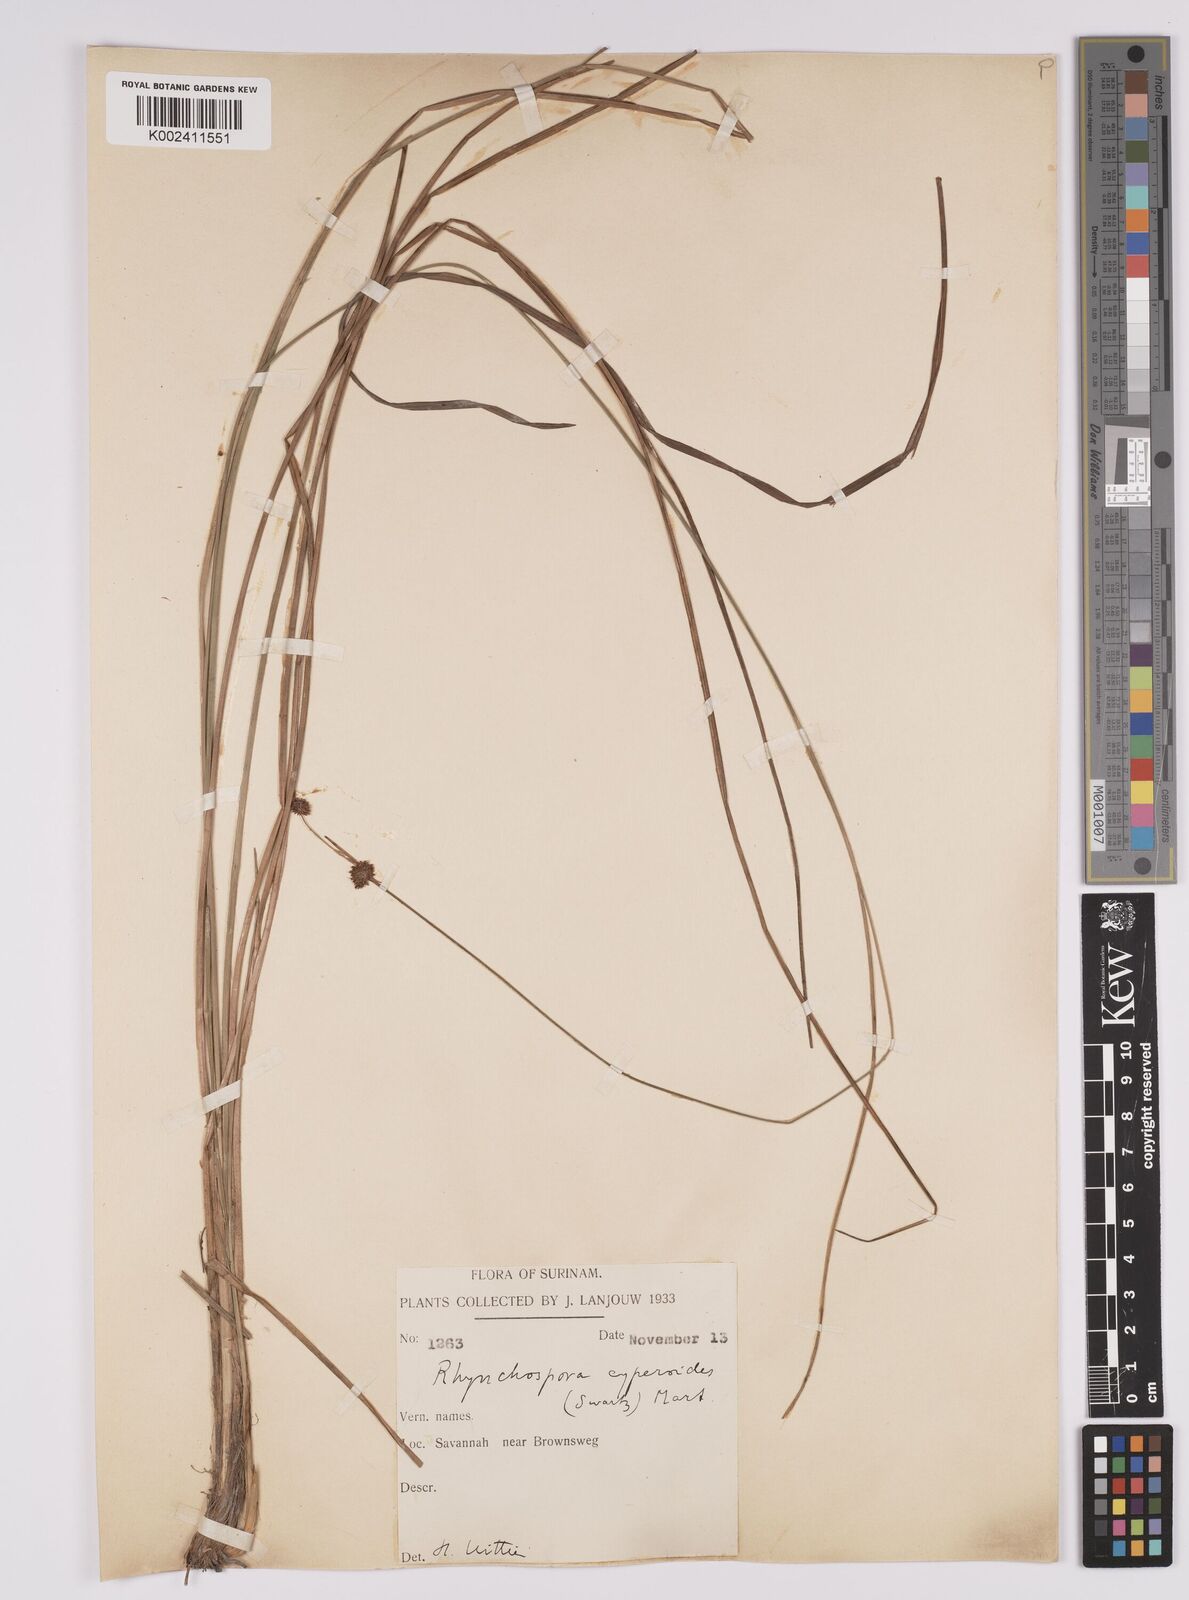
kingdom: Plantae
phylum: Tracheophyta
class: Liliopsida
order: Poales
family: Cyperaceae
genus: Rhynchospora
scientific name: Rhynchospora holoschoenoides
